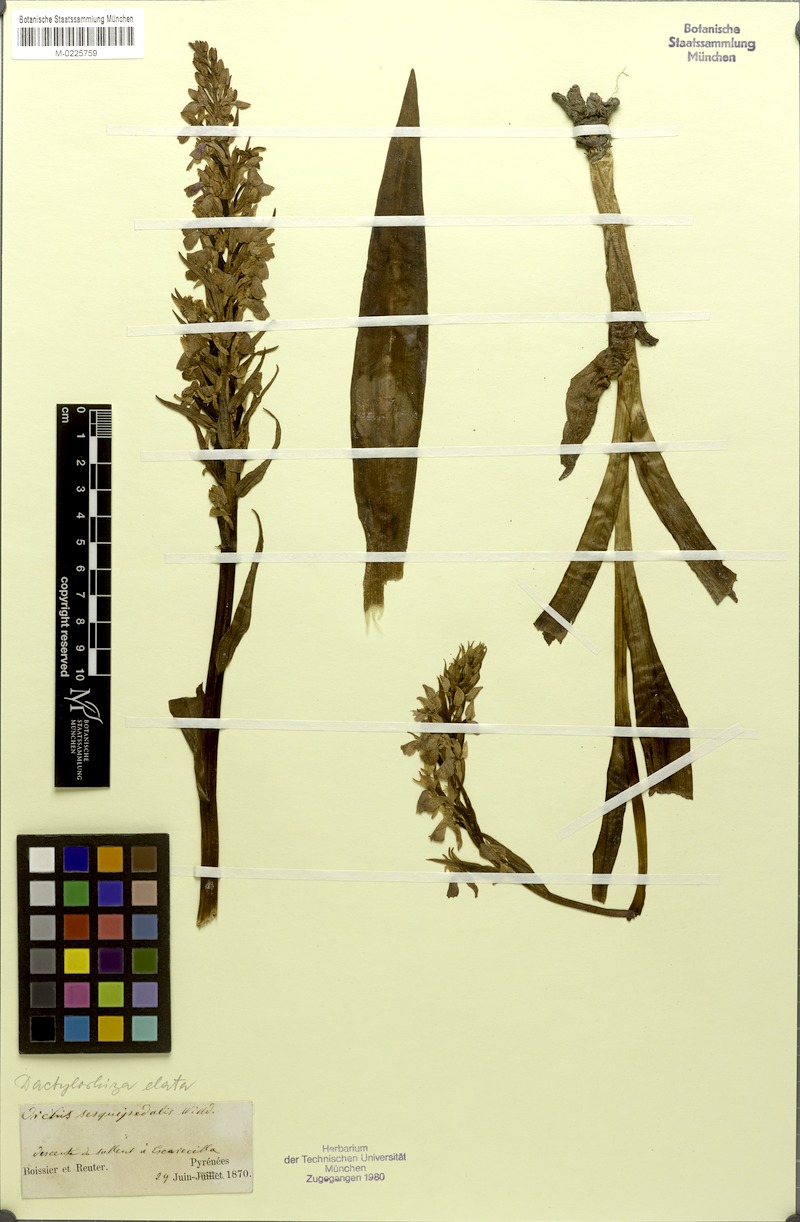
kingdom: Plantae
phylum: Tracheophyta
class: Liliopsida
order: Asparagales
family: Orchidaceae
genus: Dactylorhiza
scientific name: Dactylorhiza elata
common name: Stately dactylorhiza
